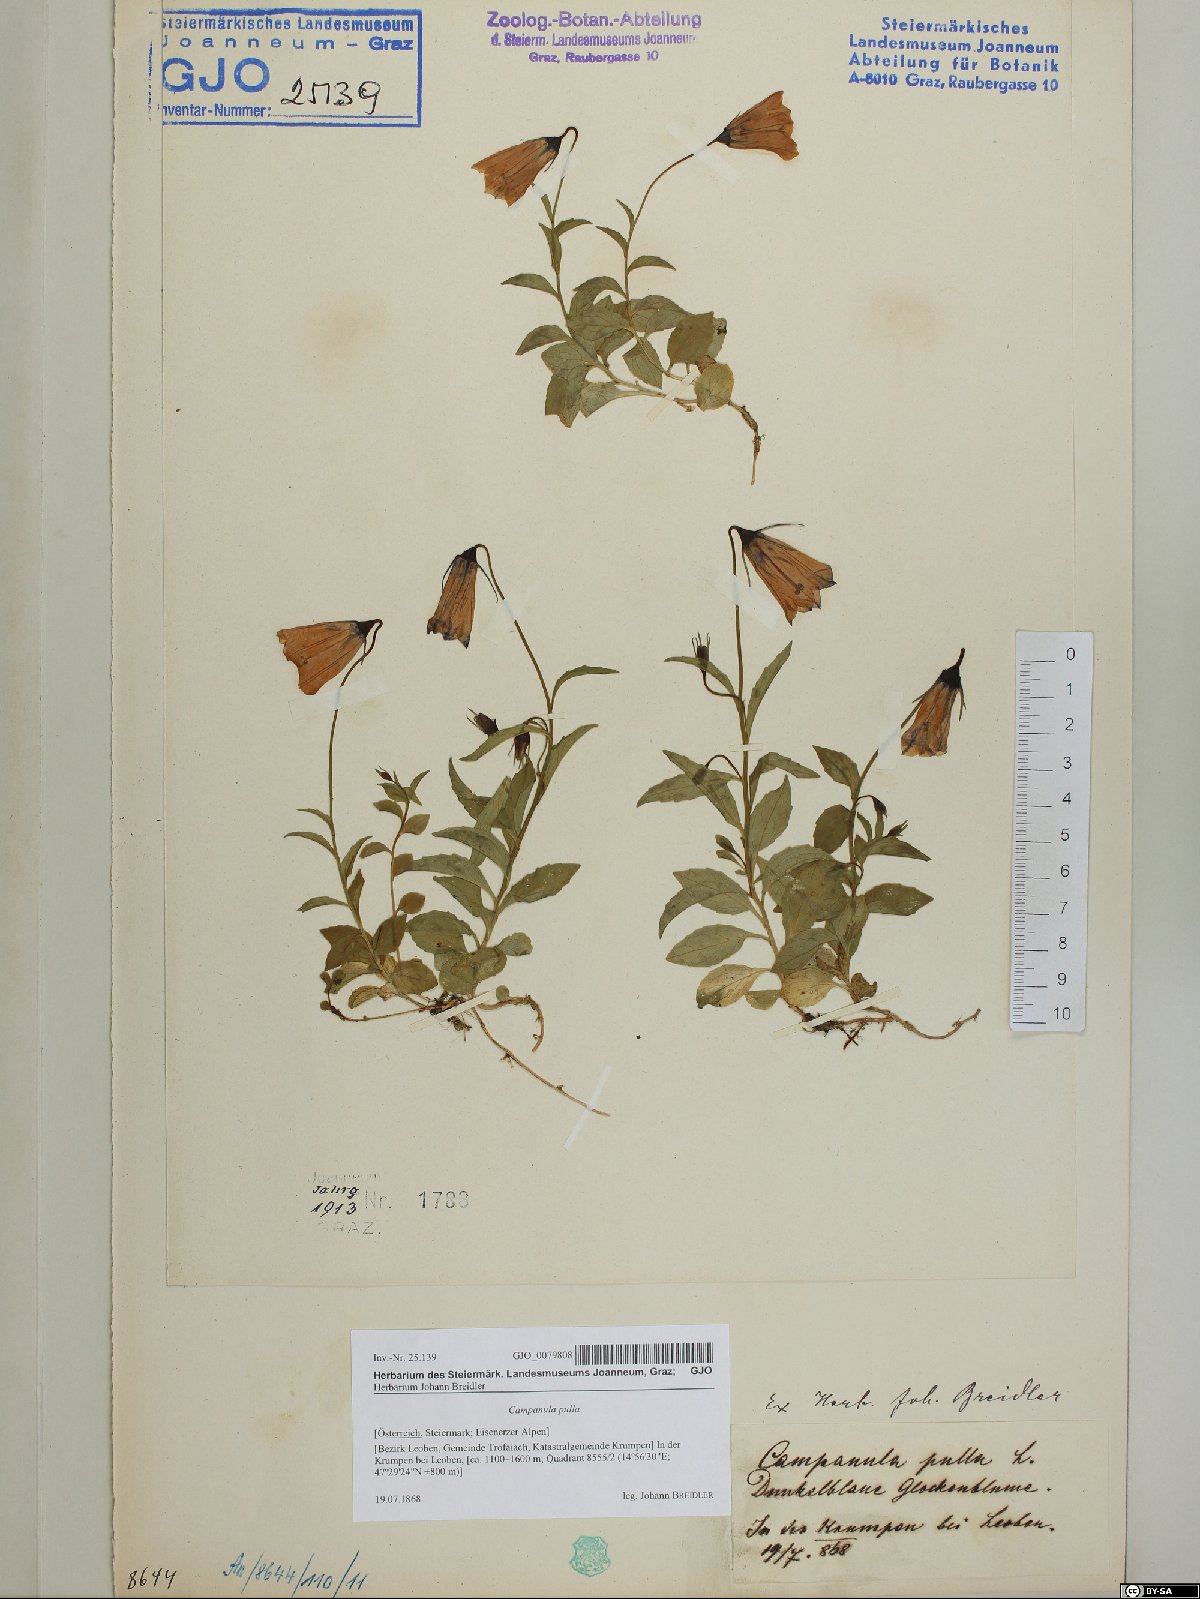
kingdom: Plantae
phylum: Tracheophyta
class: Magnoliopsida
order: Asterales
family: Campanulaceae
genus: Campanula
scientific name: Campanula pulla
